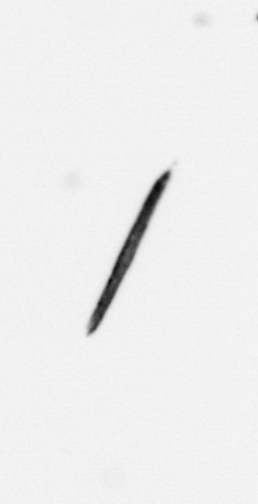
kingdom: Bacteria
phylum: Cyanobacteria
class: Cyanobacteriia
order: Cyanobacteriales
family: Microcoleaceae
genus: Trichodesmium
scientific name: Trichodesmium
